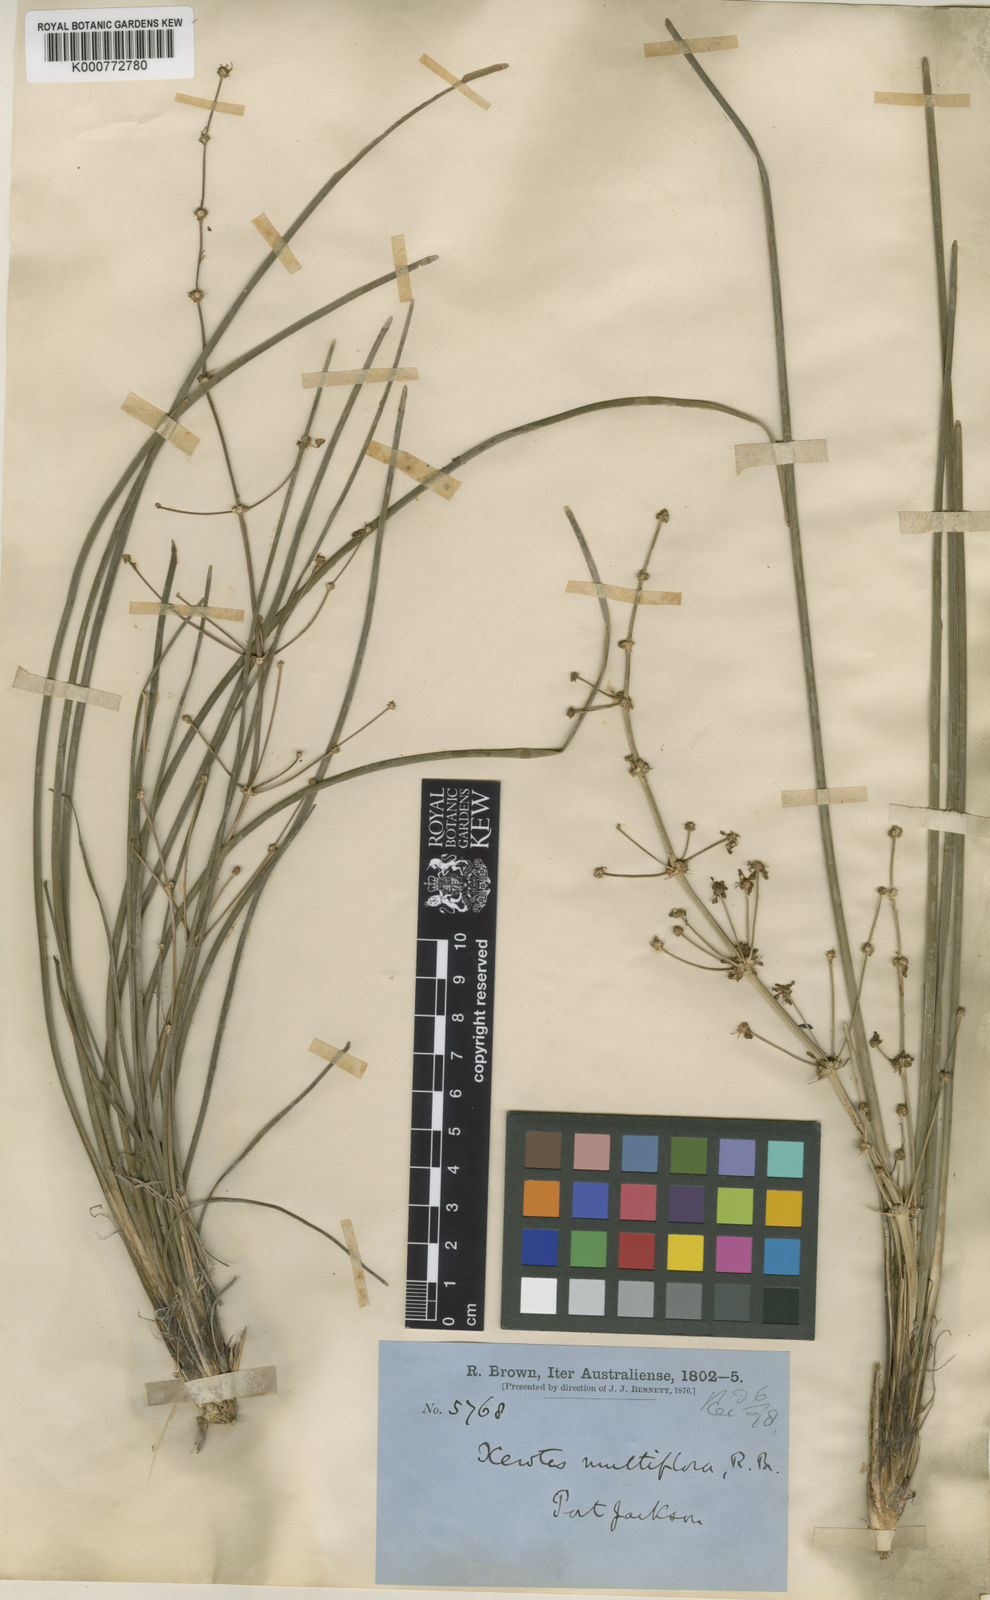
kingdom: Plantae
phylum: Tracheophyta
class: Liliopsida
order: Asparagales
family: Asparagaceae
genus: Lomandra
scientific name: Lomandra multiflora
